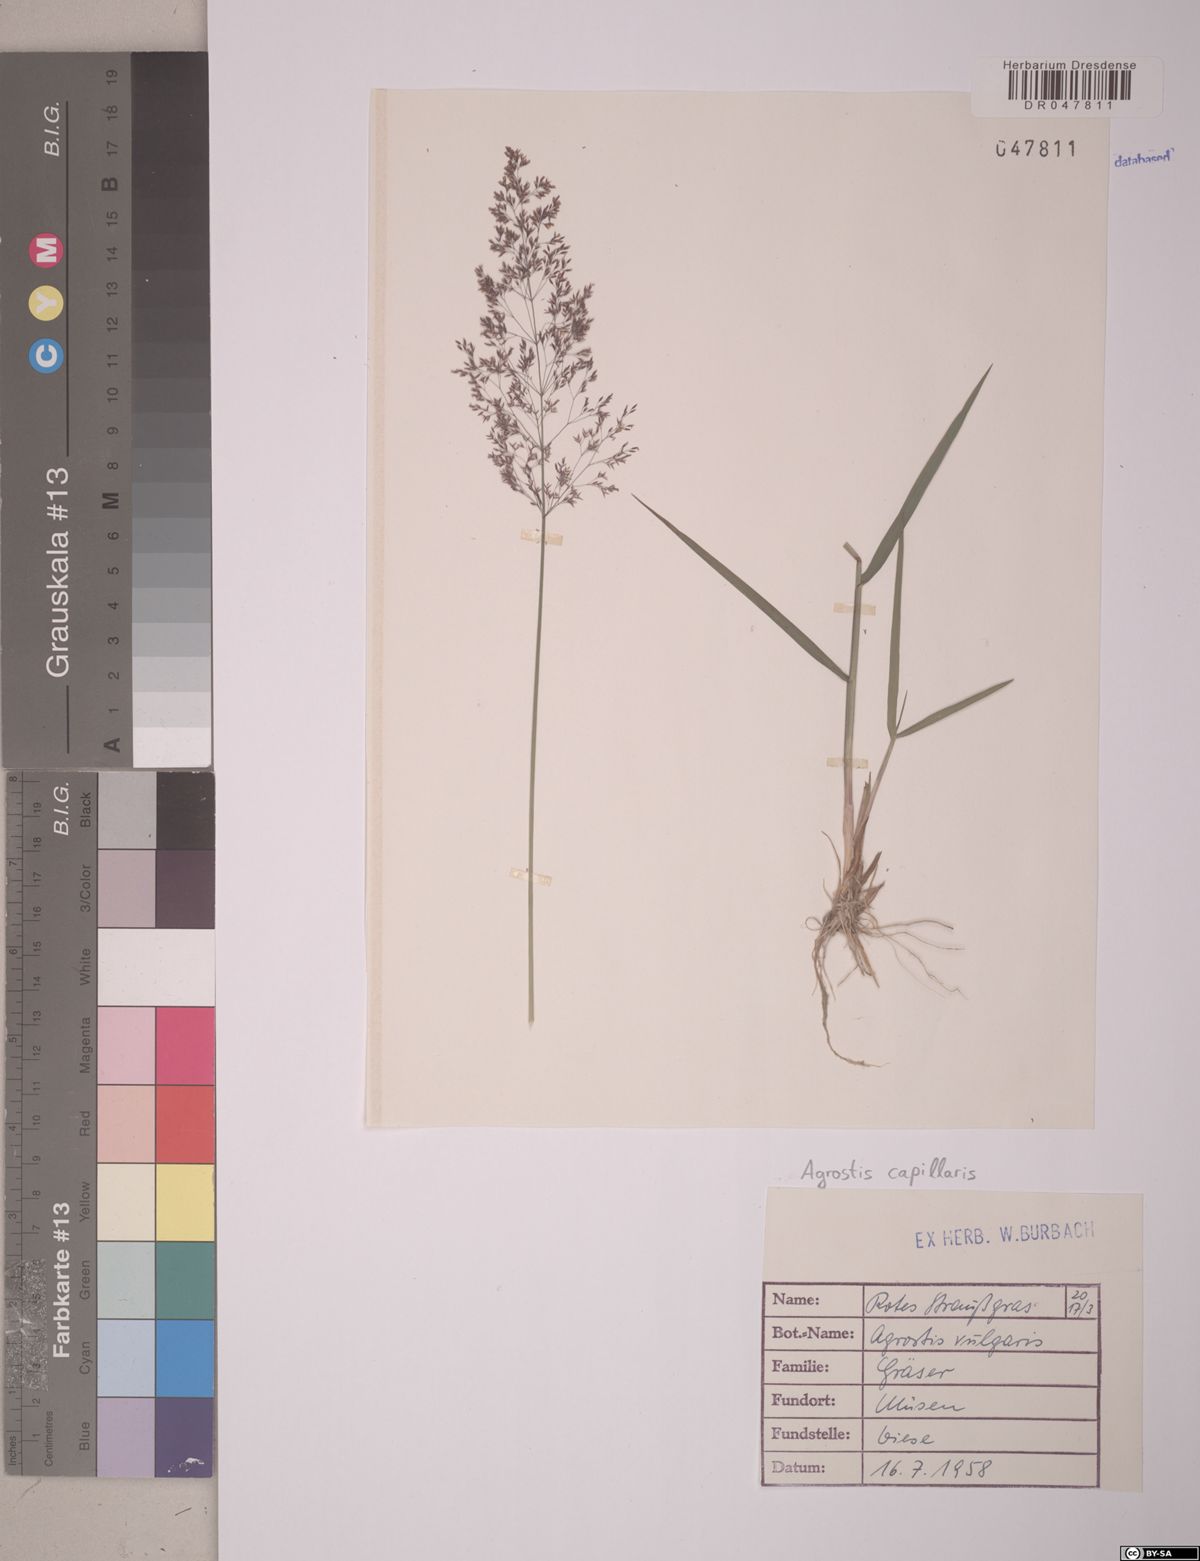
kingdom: Plantae
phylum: Tracheophyta
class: Liliopsida
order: Poales
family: Poaceae
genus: Agrostis
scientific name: Agrostis capillaris
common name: Colonial bentgrass
